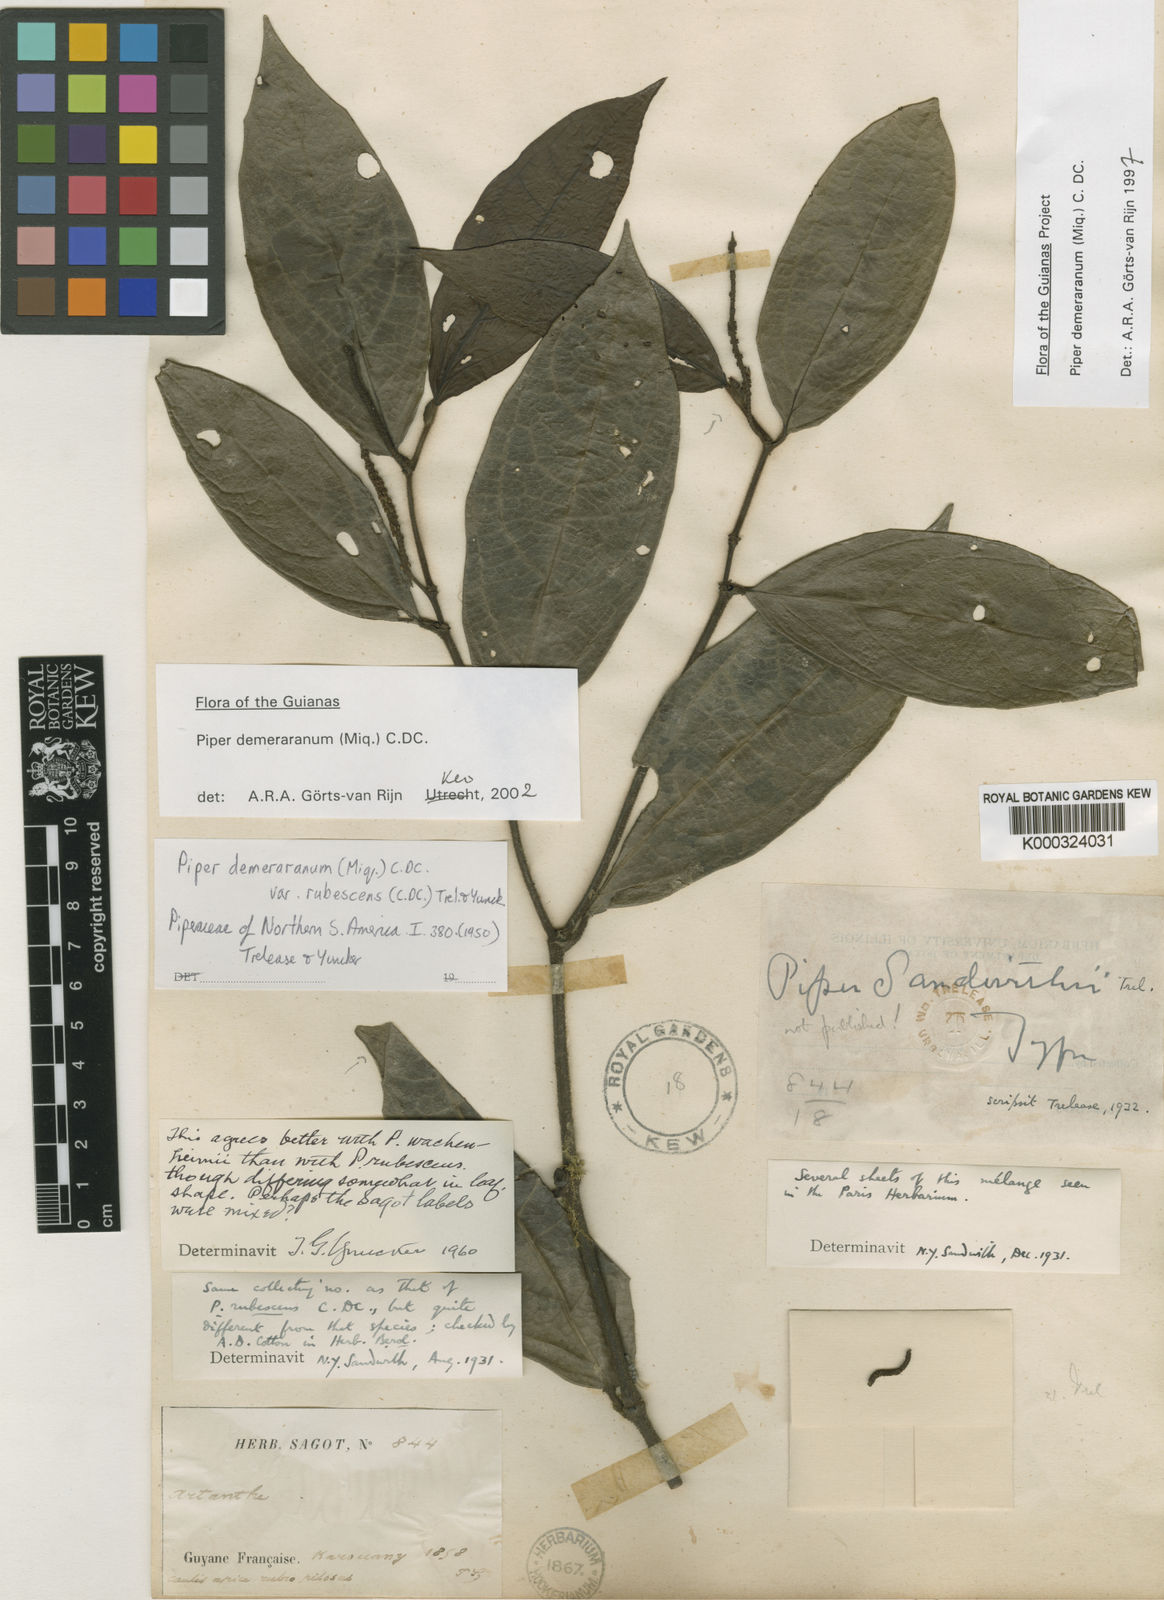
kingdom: Plantae
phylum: Tracheophyta
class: Magnoliopsida
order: Piperales
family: Piperaceae
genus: Piper
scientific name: Piper demeraranum
